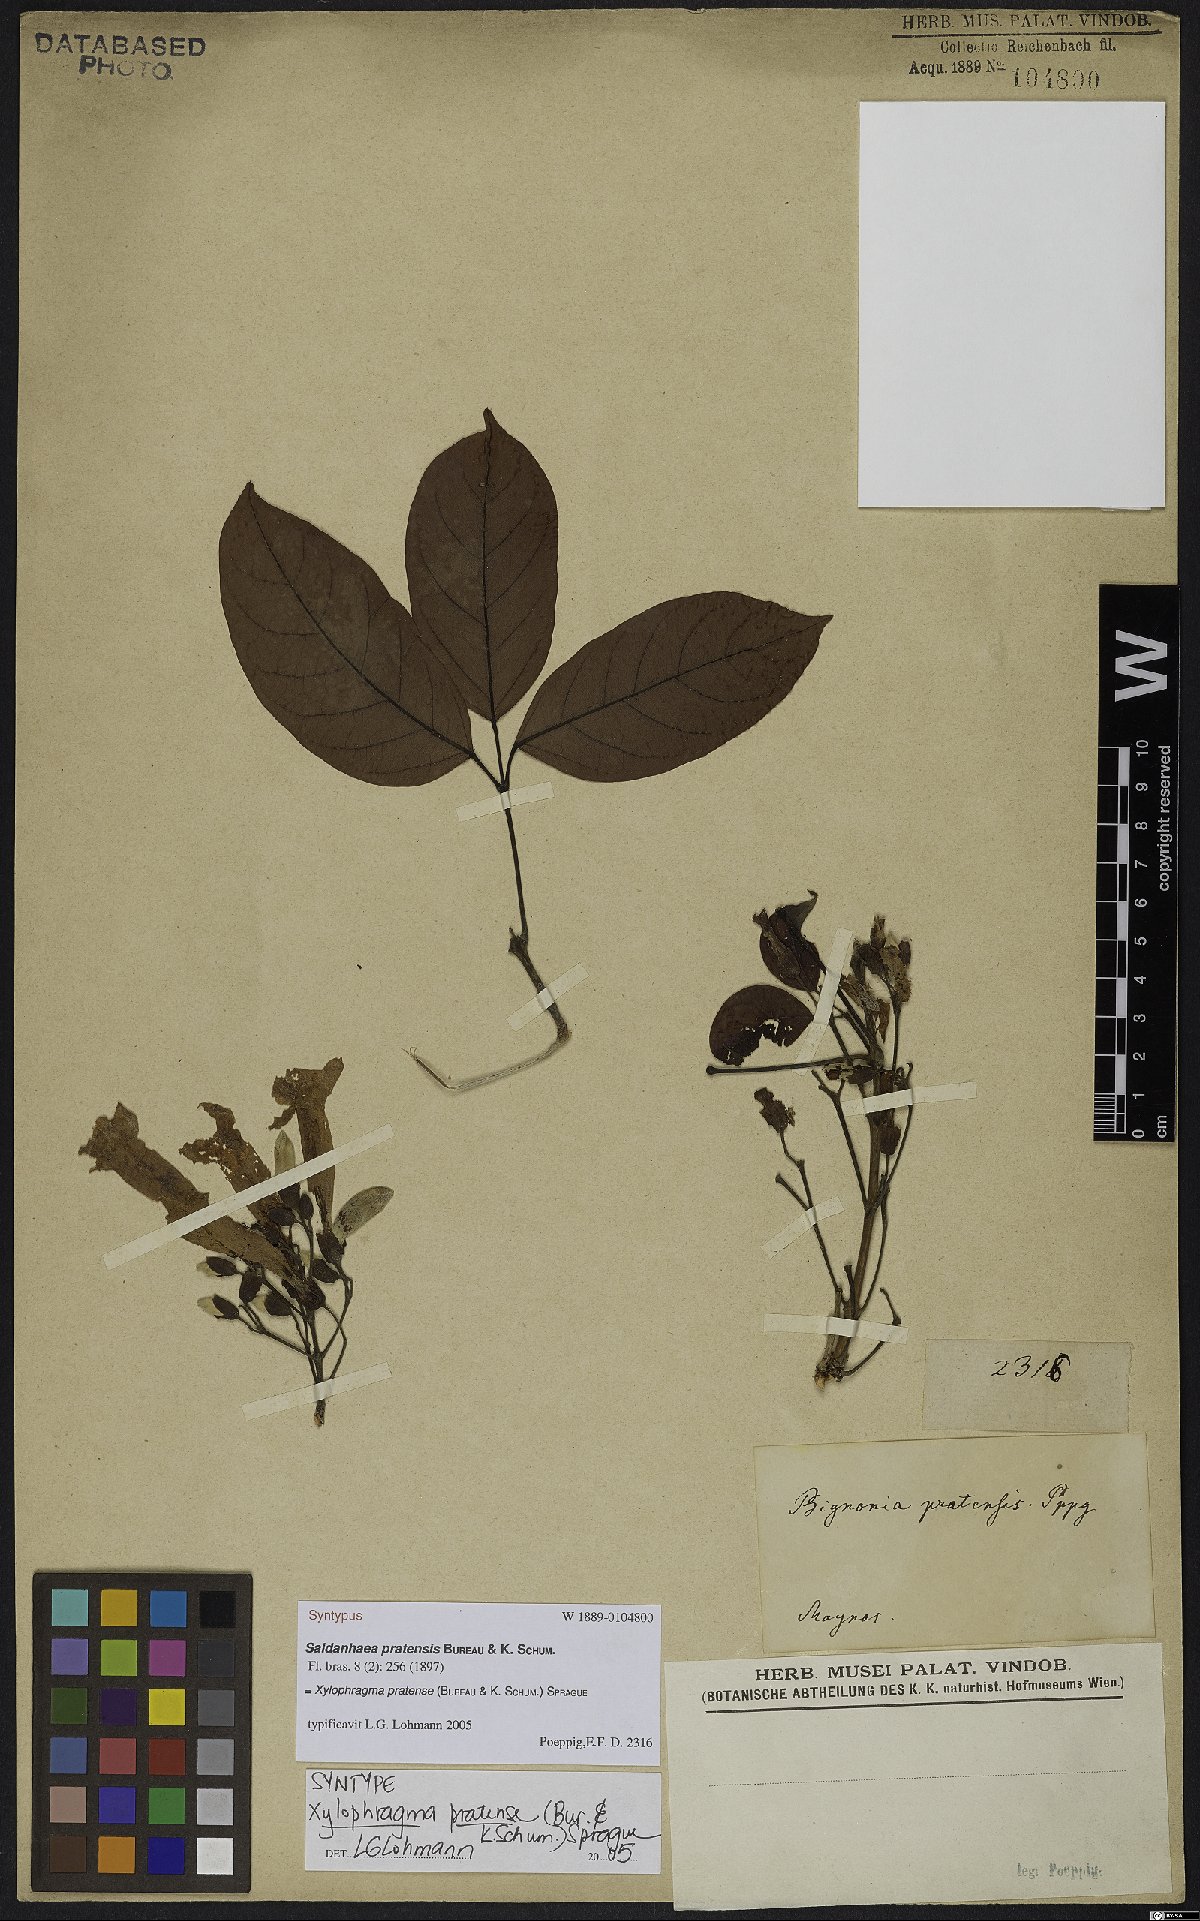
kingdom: Plantae
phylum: Tracheophyta
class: Magnoliopsida
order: Lamiales
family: Bignoniaceae
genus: Xylophragma
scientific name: Xylophragma myrianthum
